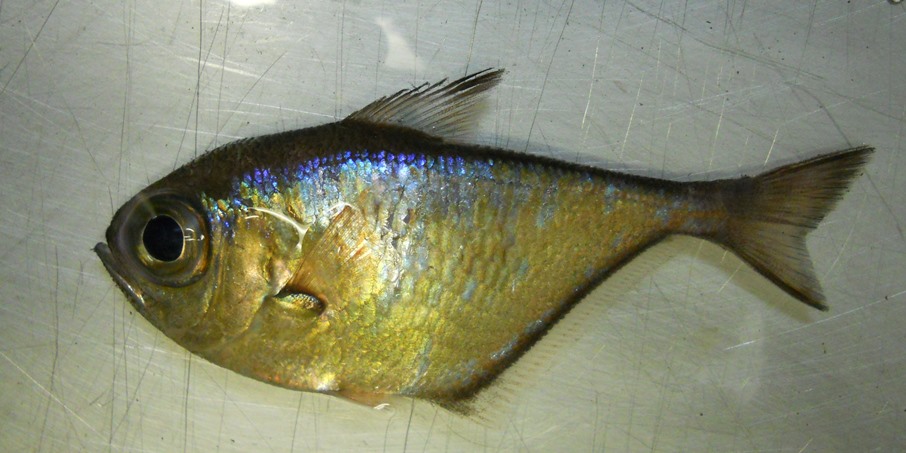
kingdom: Animalia
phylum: Chordata
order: Perciformes
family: Pempheridae
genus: Pempheris
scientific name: Pempheris connelli
